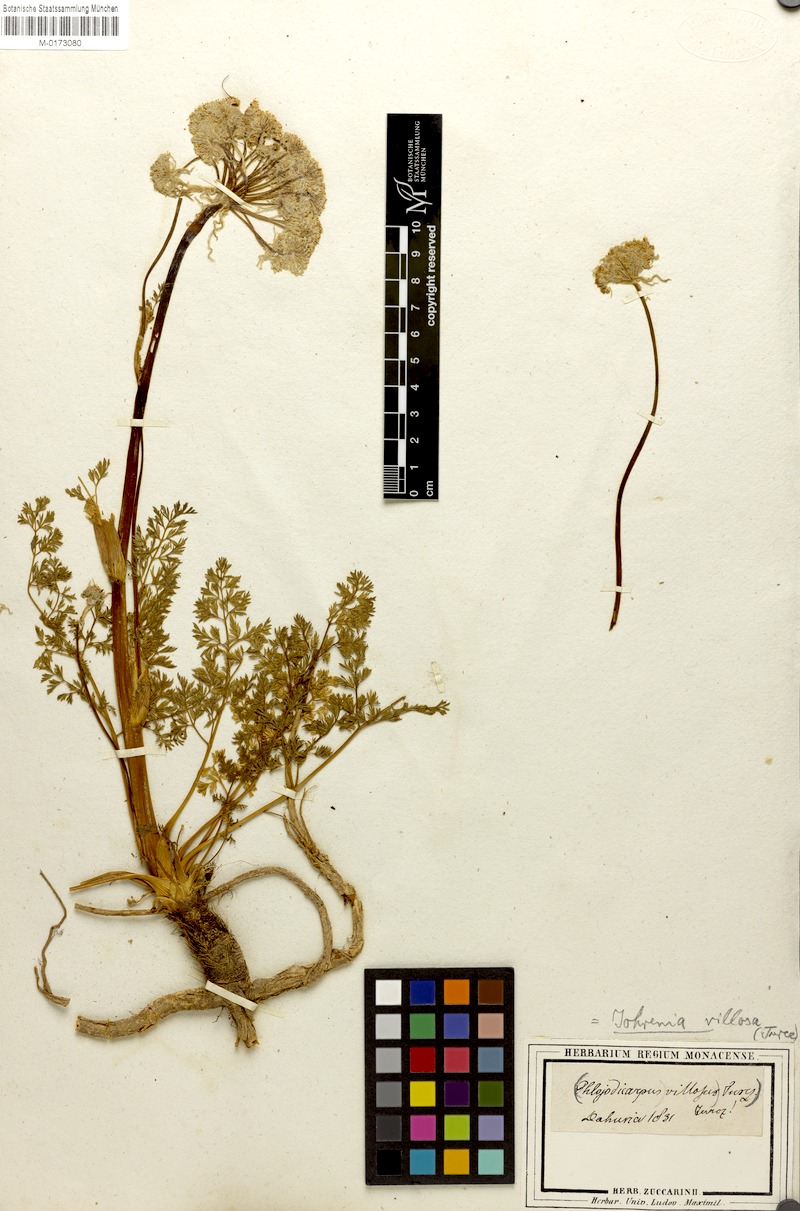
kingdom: Plantae
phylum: Tracheophyta
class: Magnoliopsida
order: Apiales
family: Apiaceae
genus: Phlojodicarpus
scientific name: Phlojodicarpus villosus
